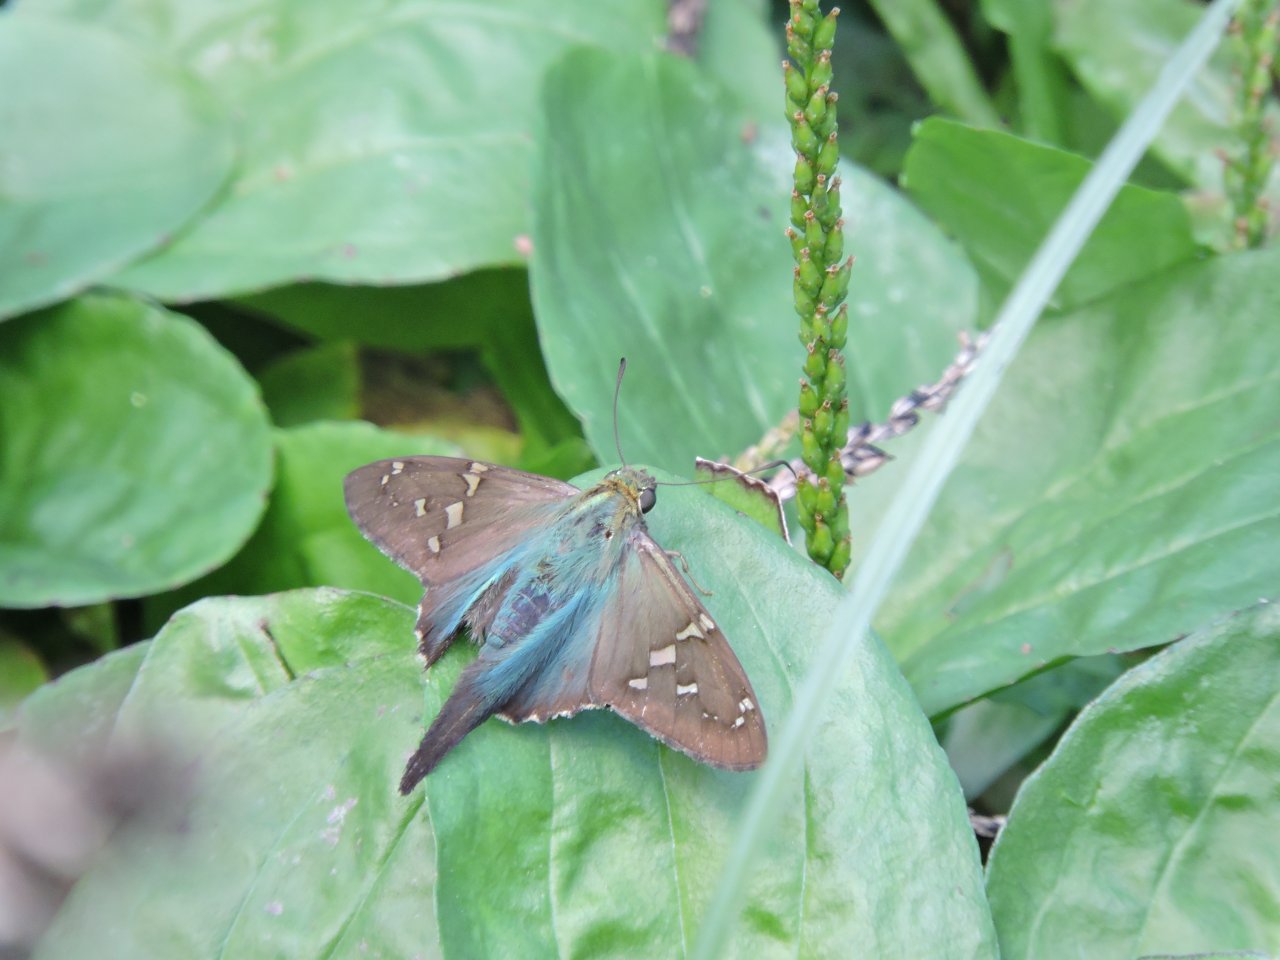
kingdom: Animalia
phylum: Arthropoda
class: Insecta
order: Lepidoptera
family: Hesperiidae
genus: Urbanus
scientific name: Urbanus proteus
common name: Long-tailed Skipper
